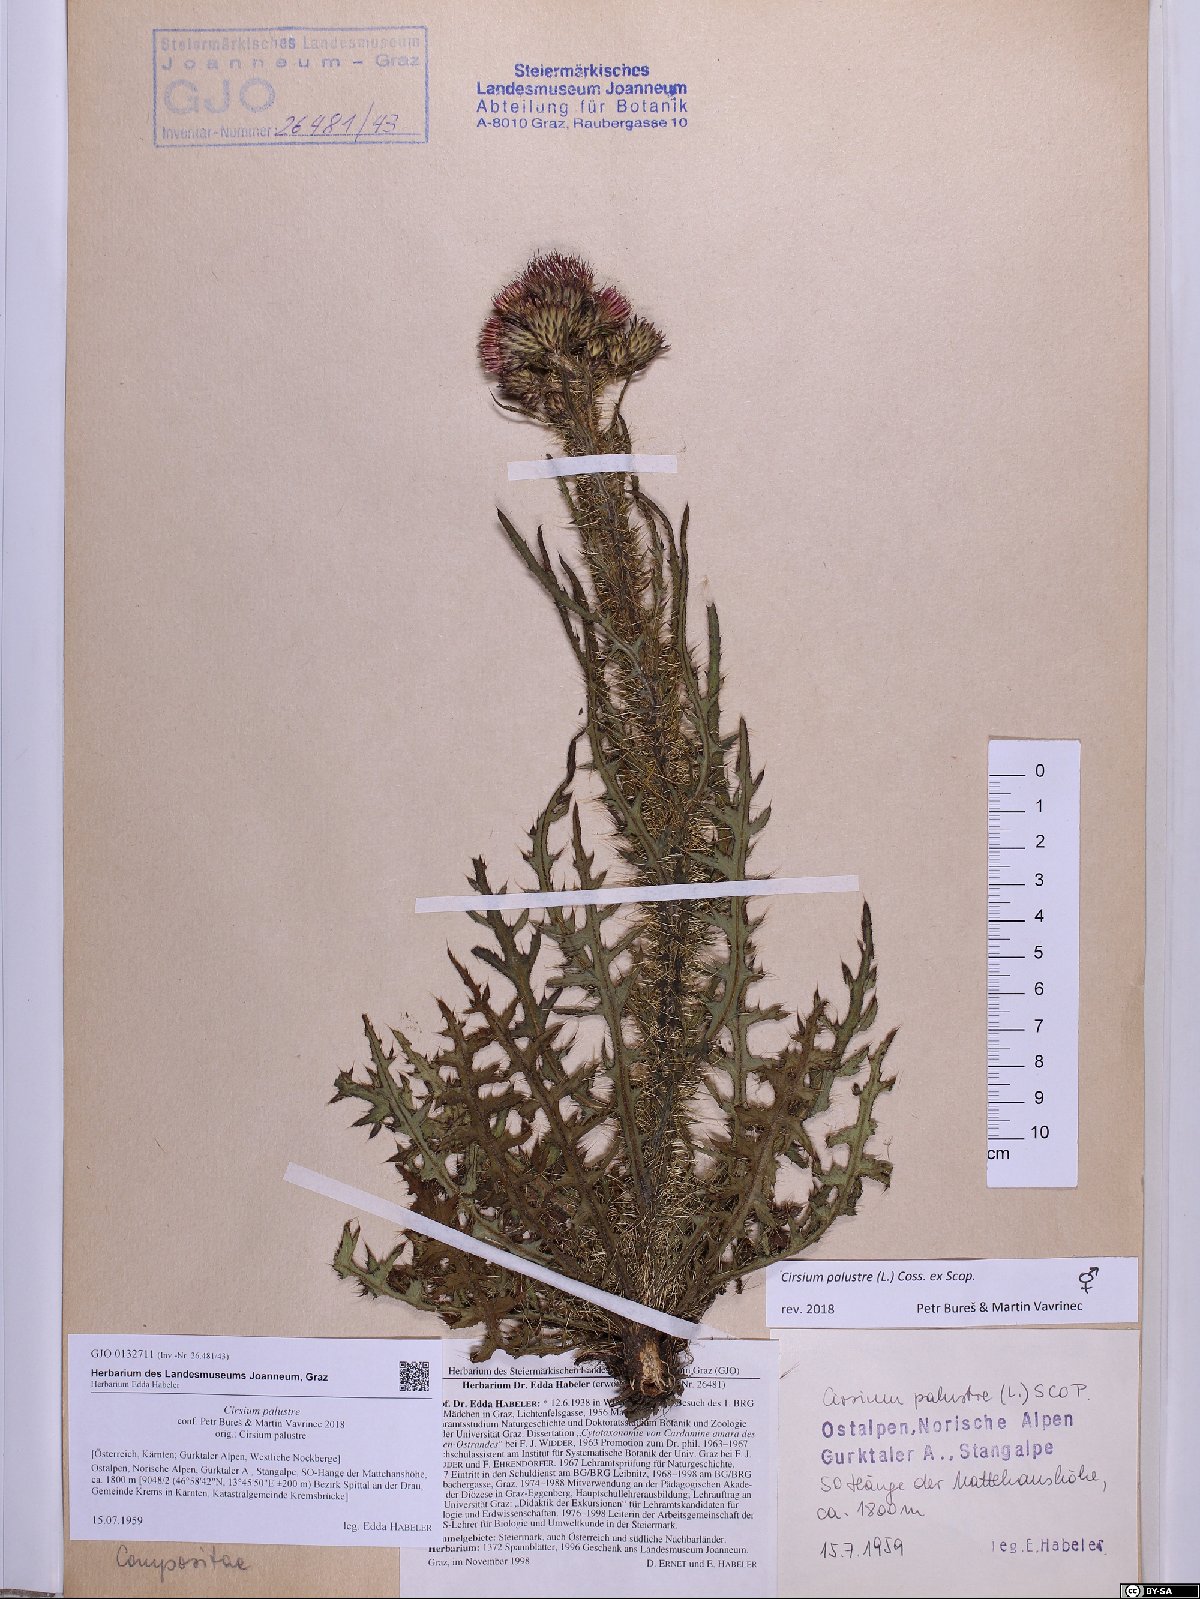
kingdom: Plantae
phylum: Tracheophyta
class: Magnoliopsida
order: Asterales
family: Asteraceae
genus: Cirsium
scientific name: Cirsium palustre
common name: Marsh thistle
